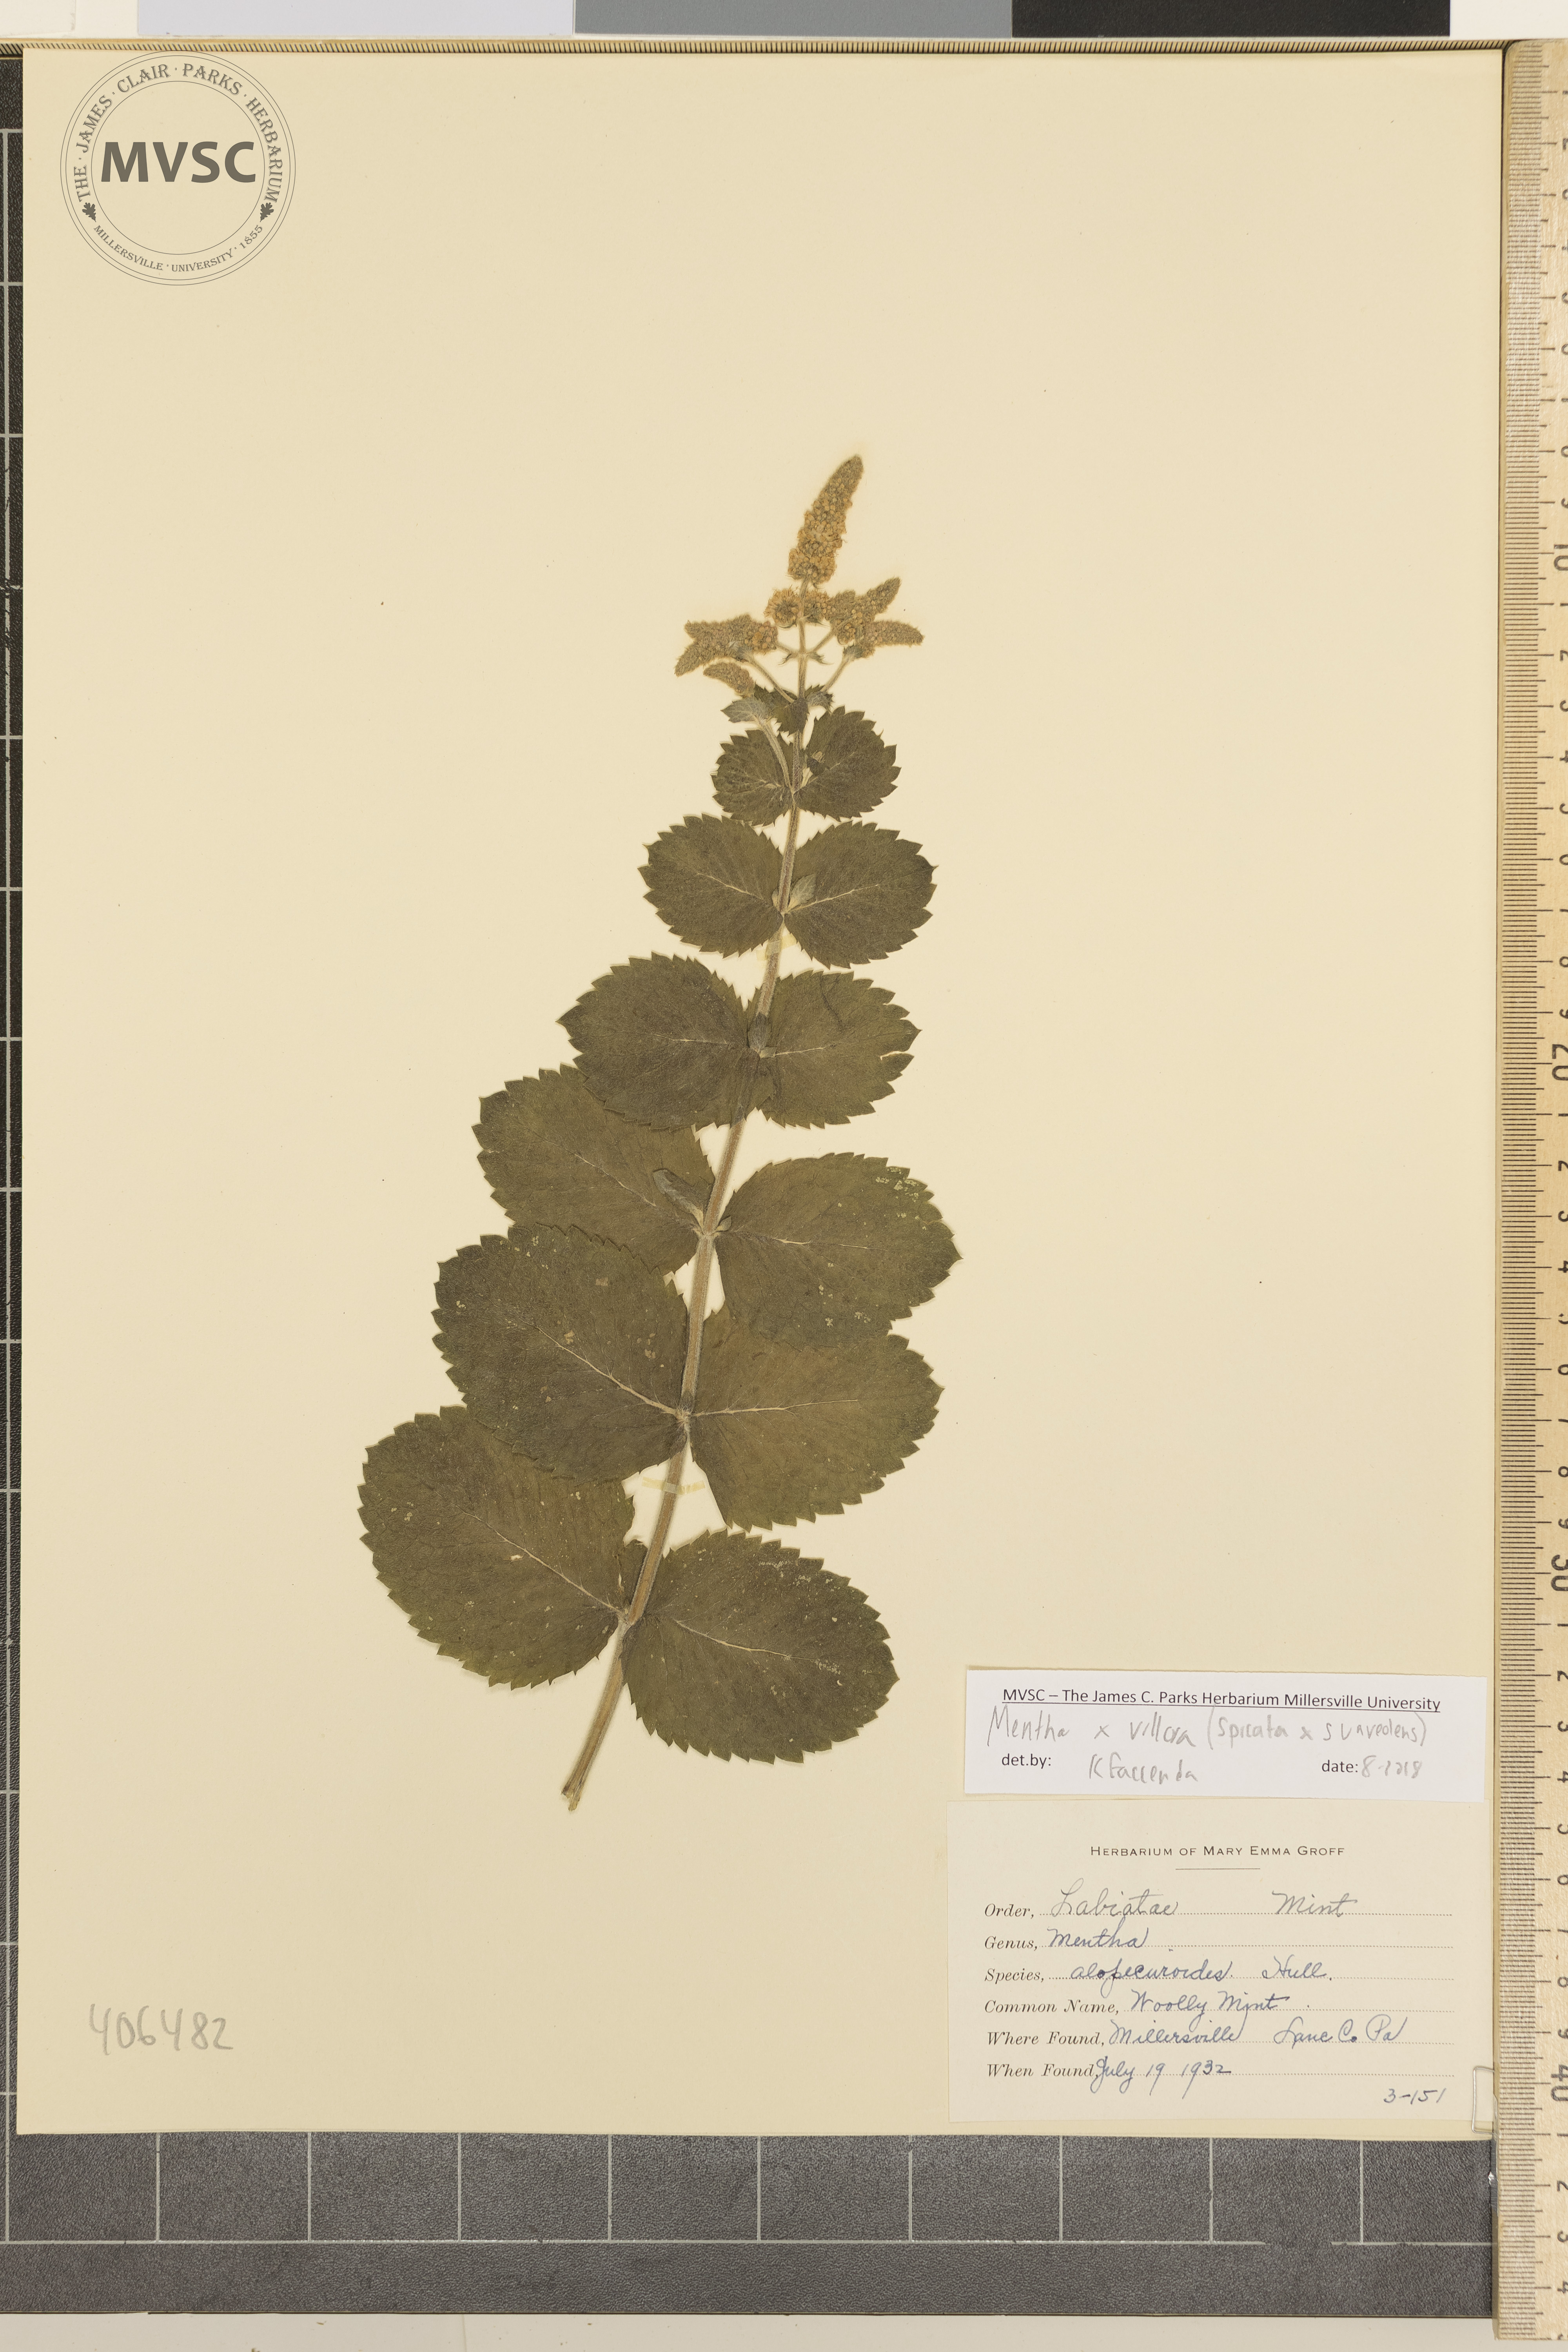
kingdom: Plantae
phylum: Tracheophyta
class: Magnoliopsida
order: Lamiales
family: Lamiaceae
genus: Mentha
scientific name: Mentha villosa
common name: woolly mint
